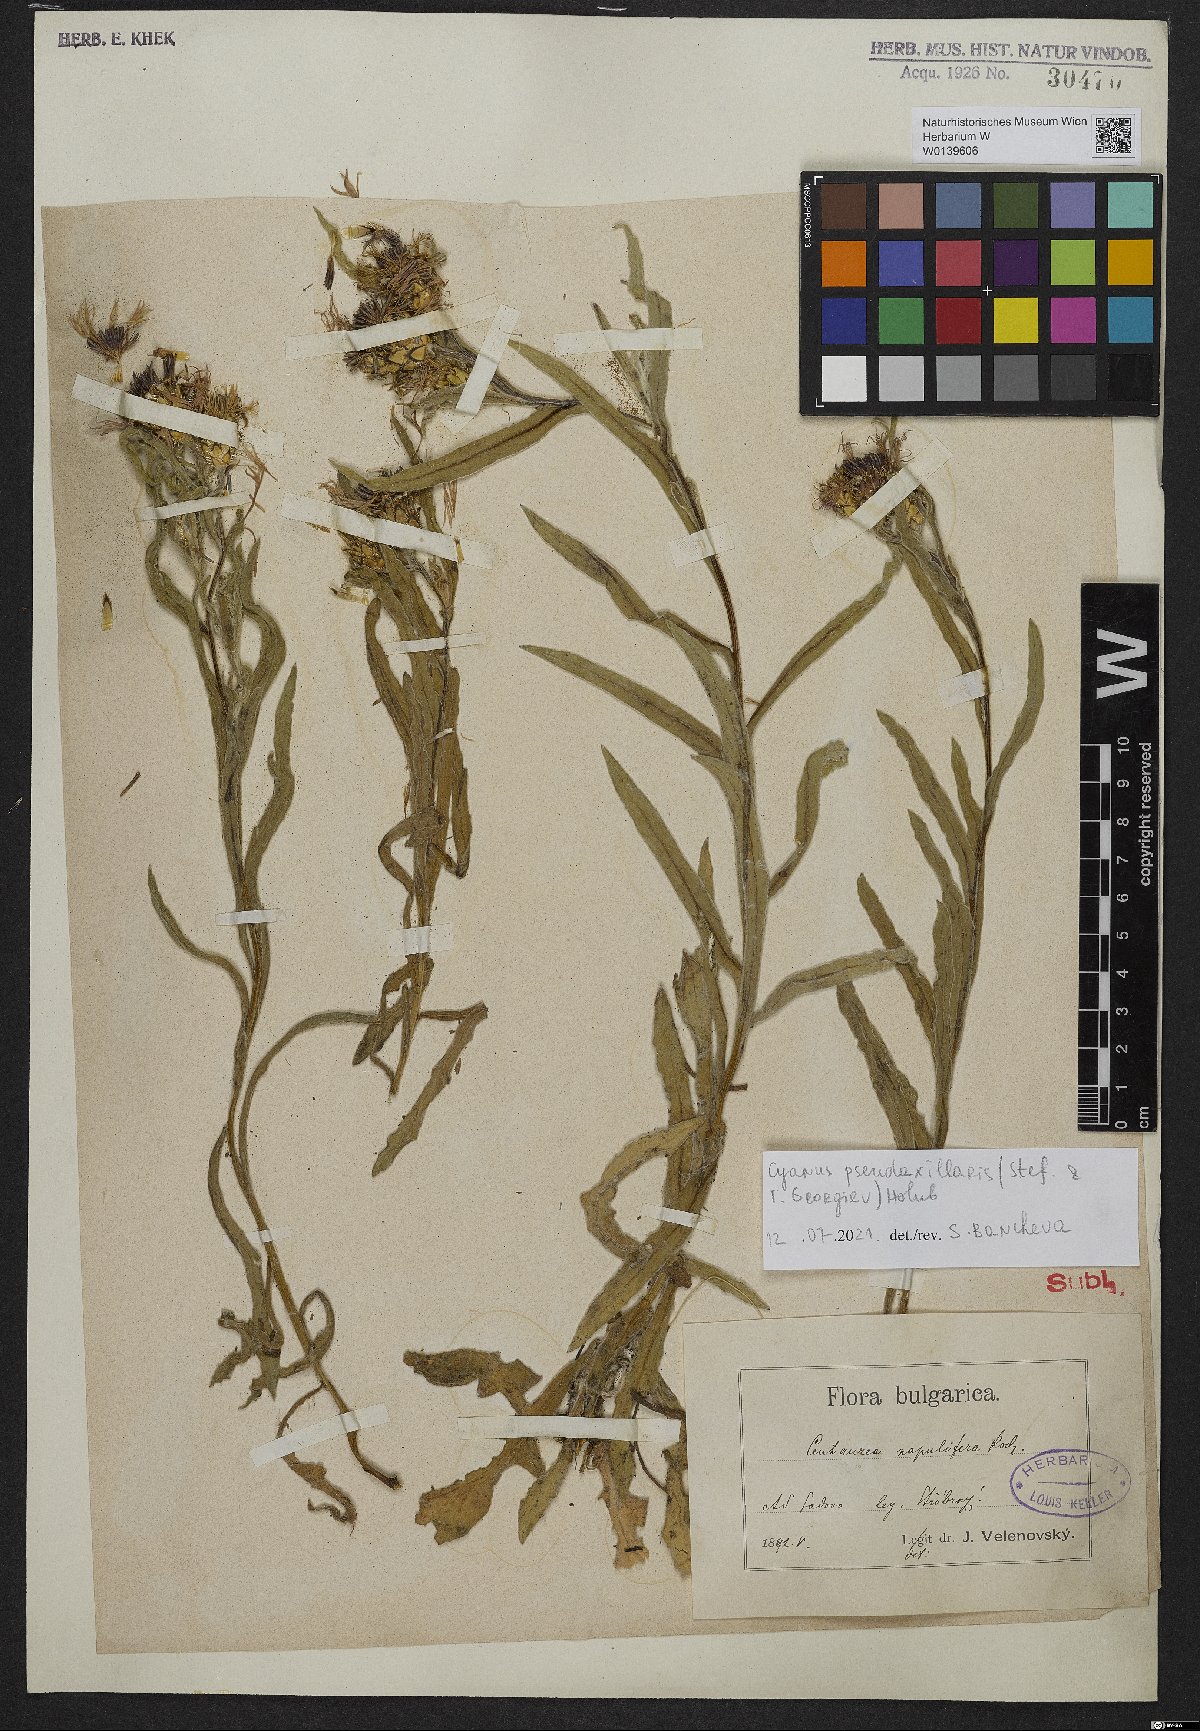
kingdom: Plantae
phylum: Tracheophyta
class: Magnoliopsida
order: Asterales
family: Asteraceae
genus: Centaurea
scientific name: Centaurea pseudoaxillaris
